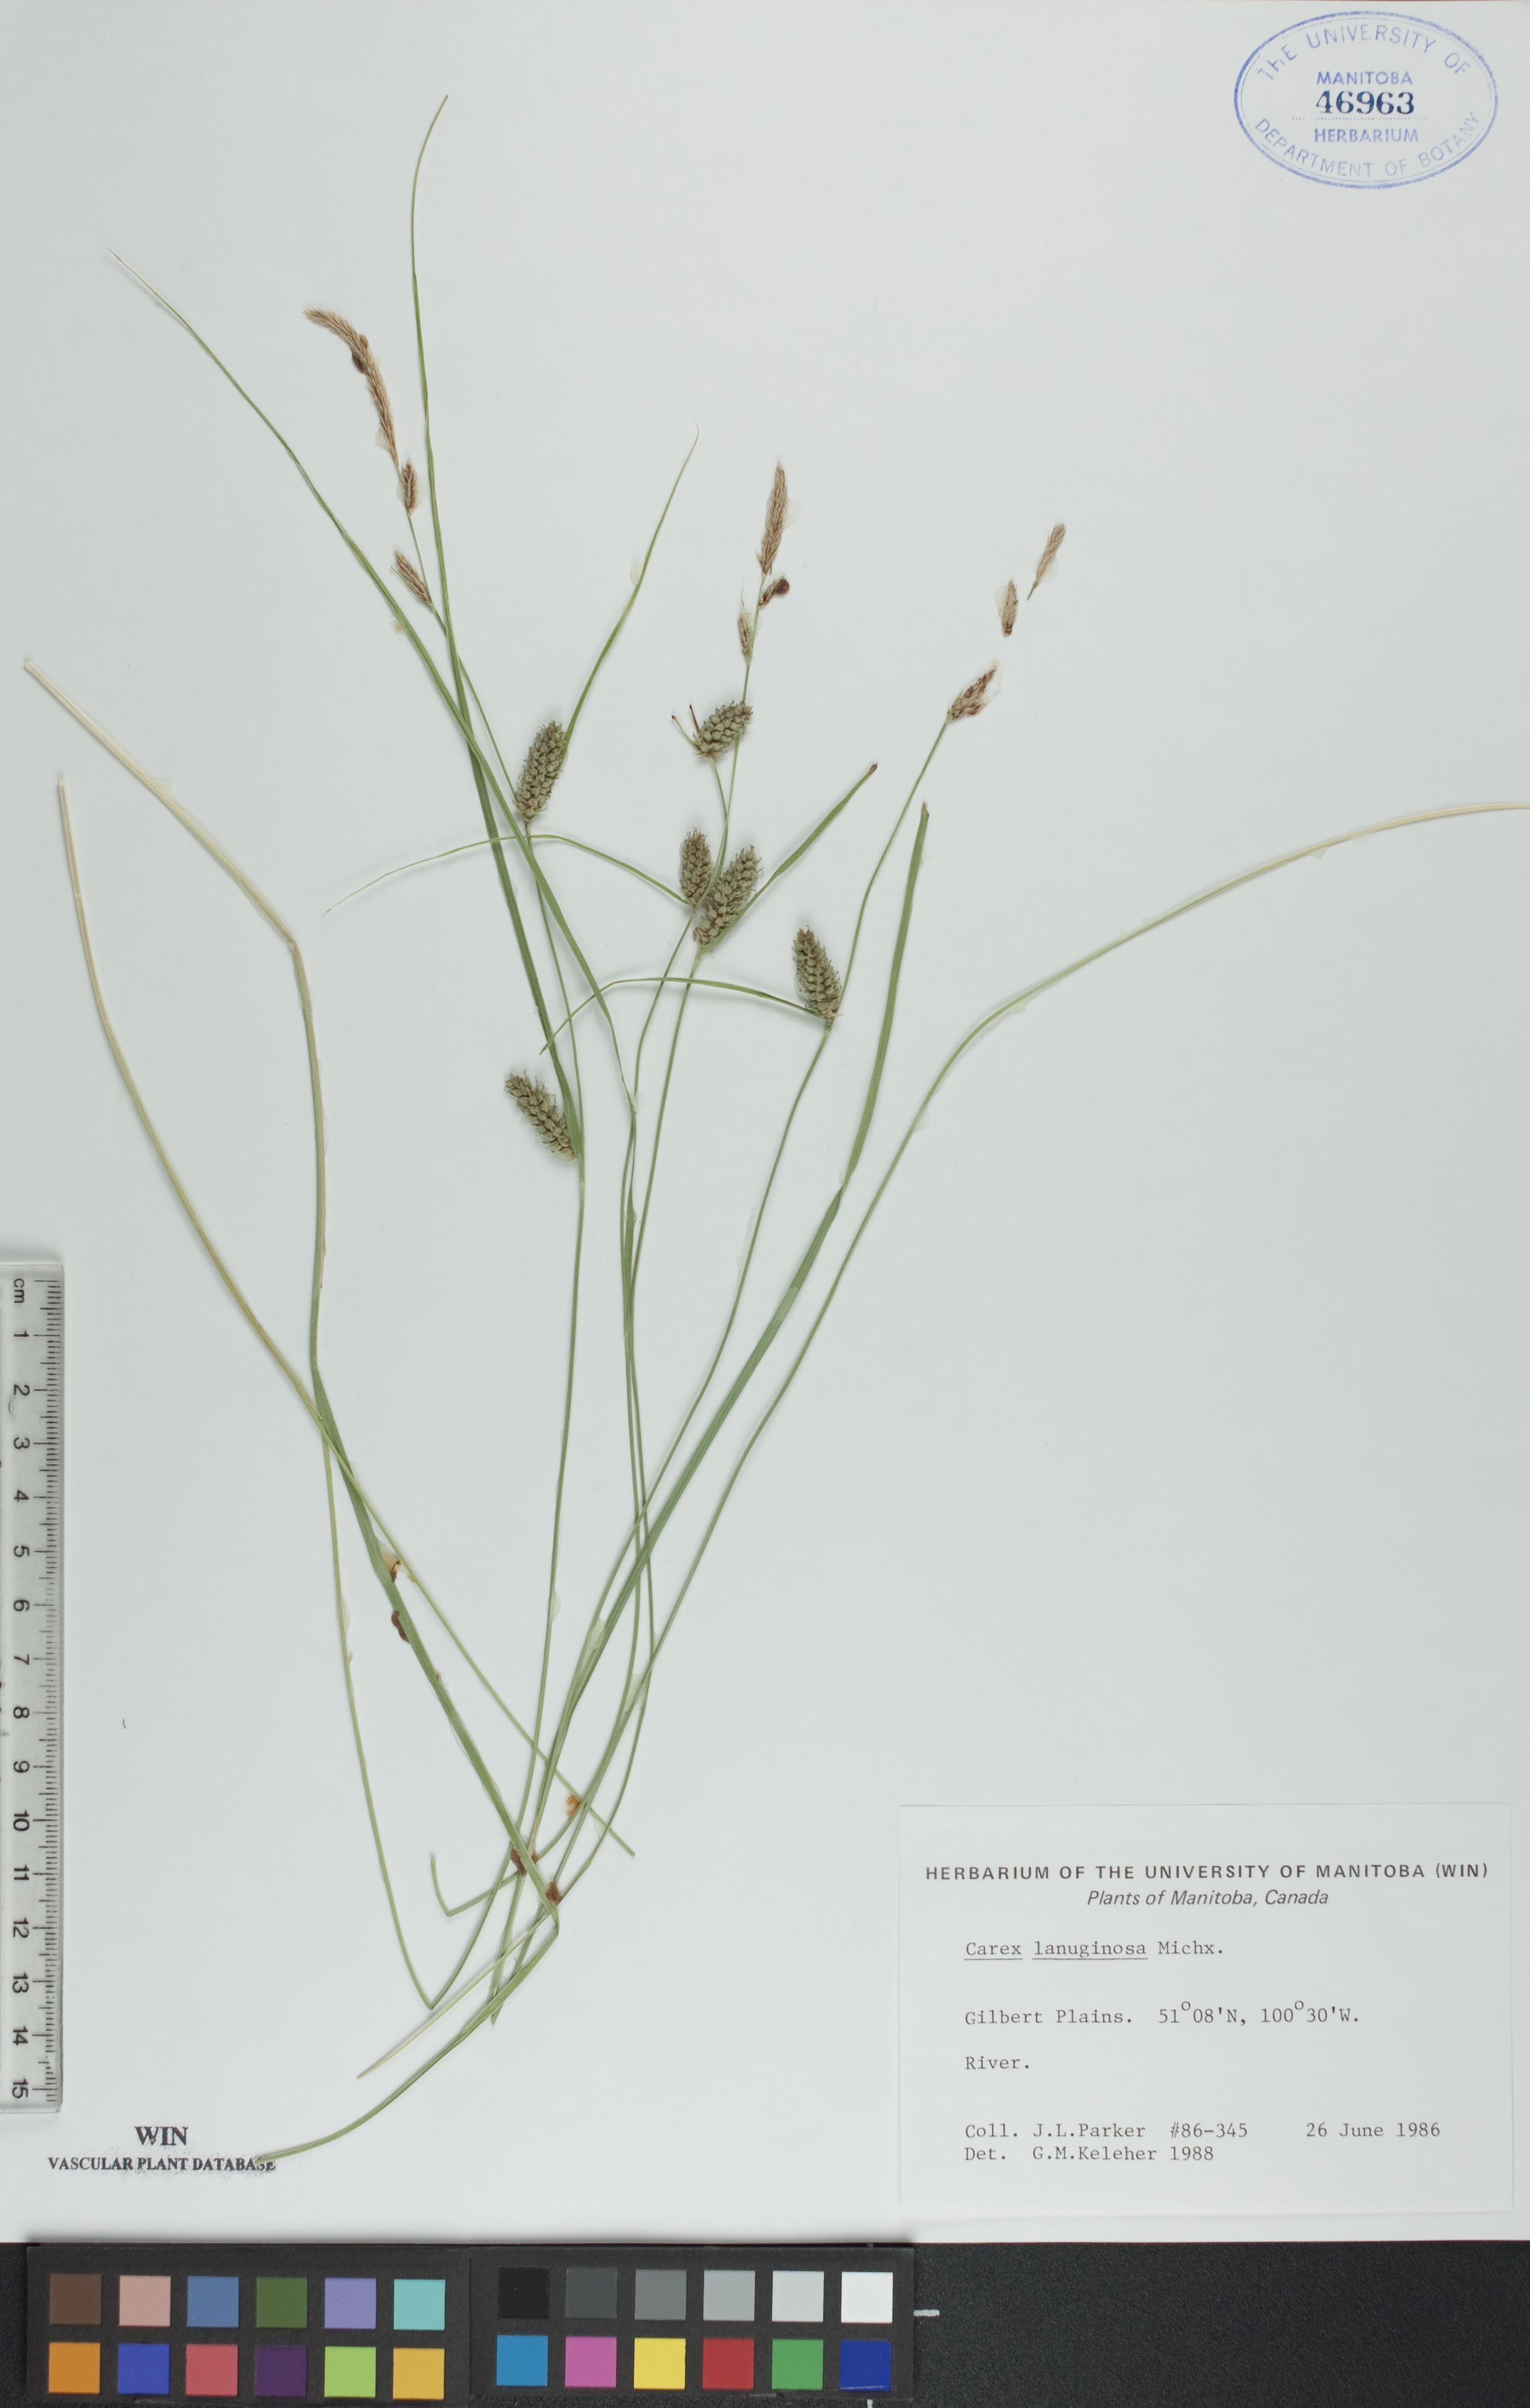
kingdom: Plantae
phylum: Tracheophyta
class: Liliopsida
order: Poales
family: Cyperaceae
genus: Carex
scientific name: Carex lasiocarpa
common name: Slender sedge
